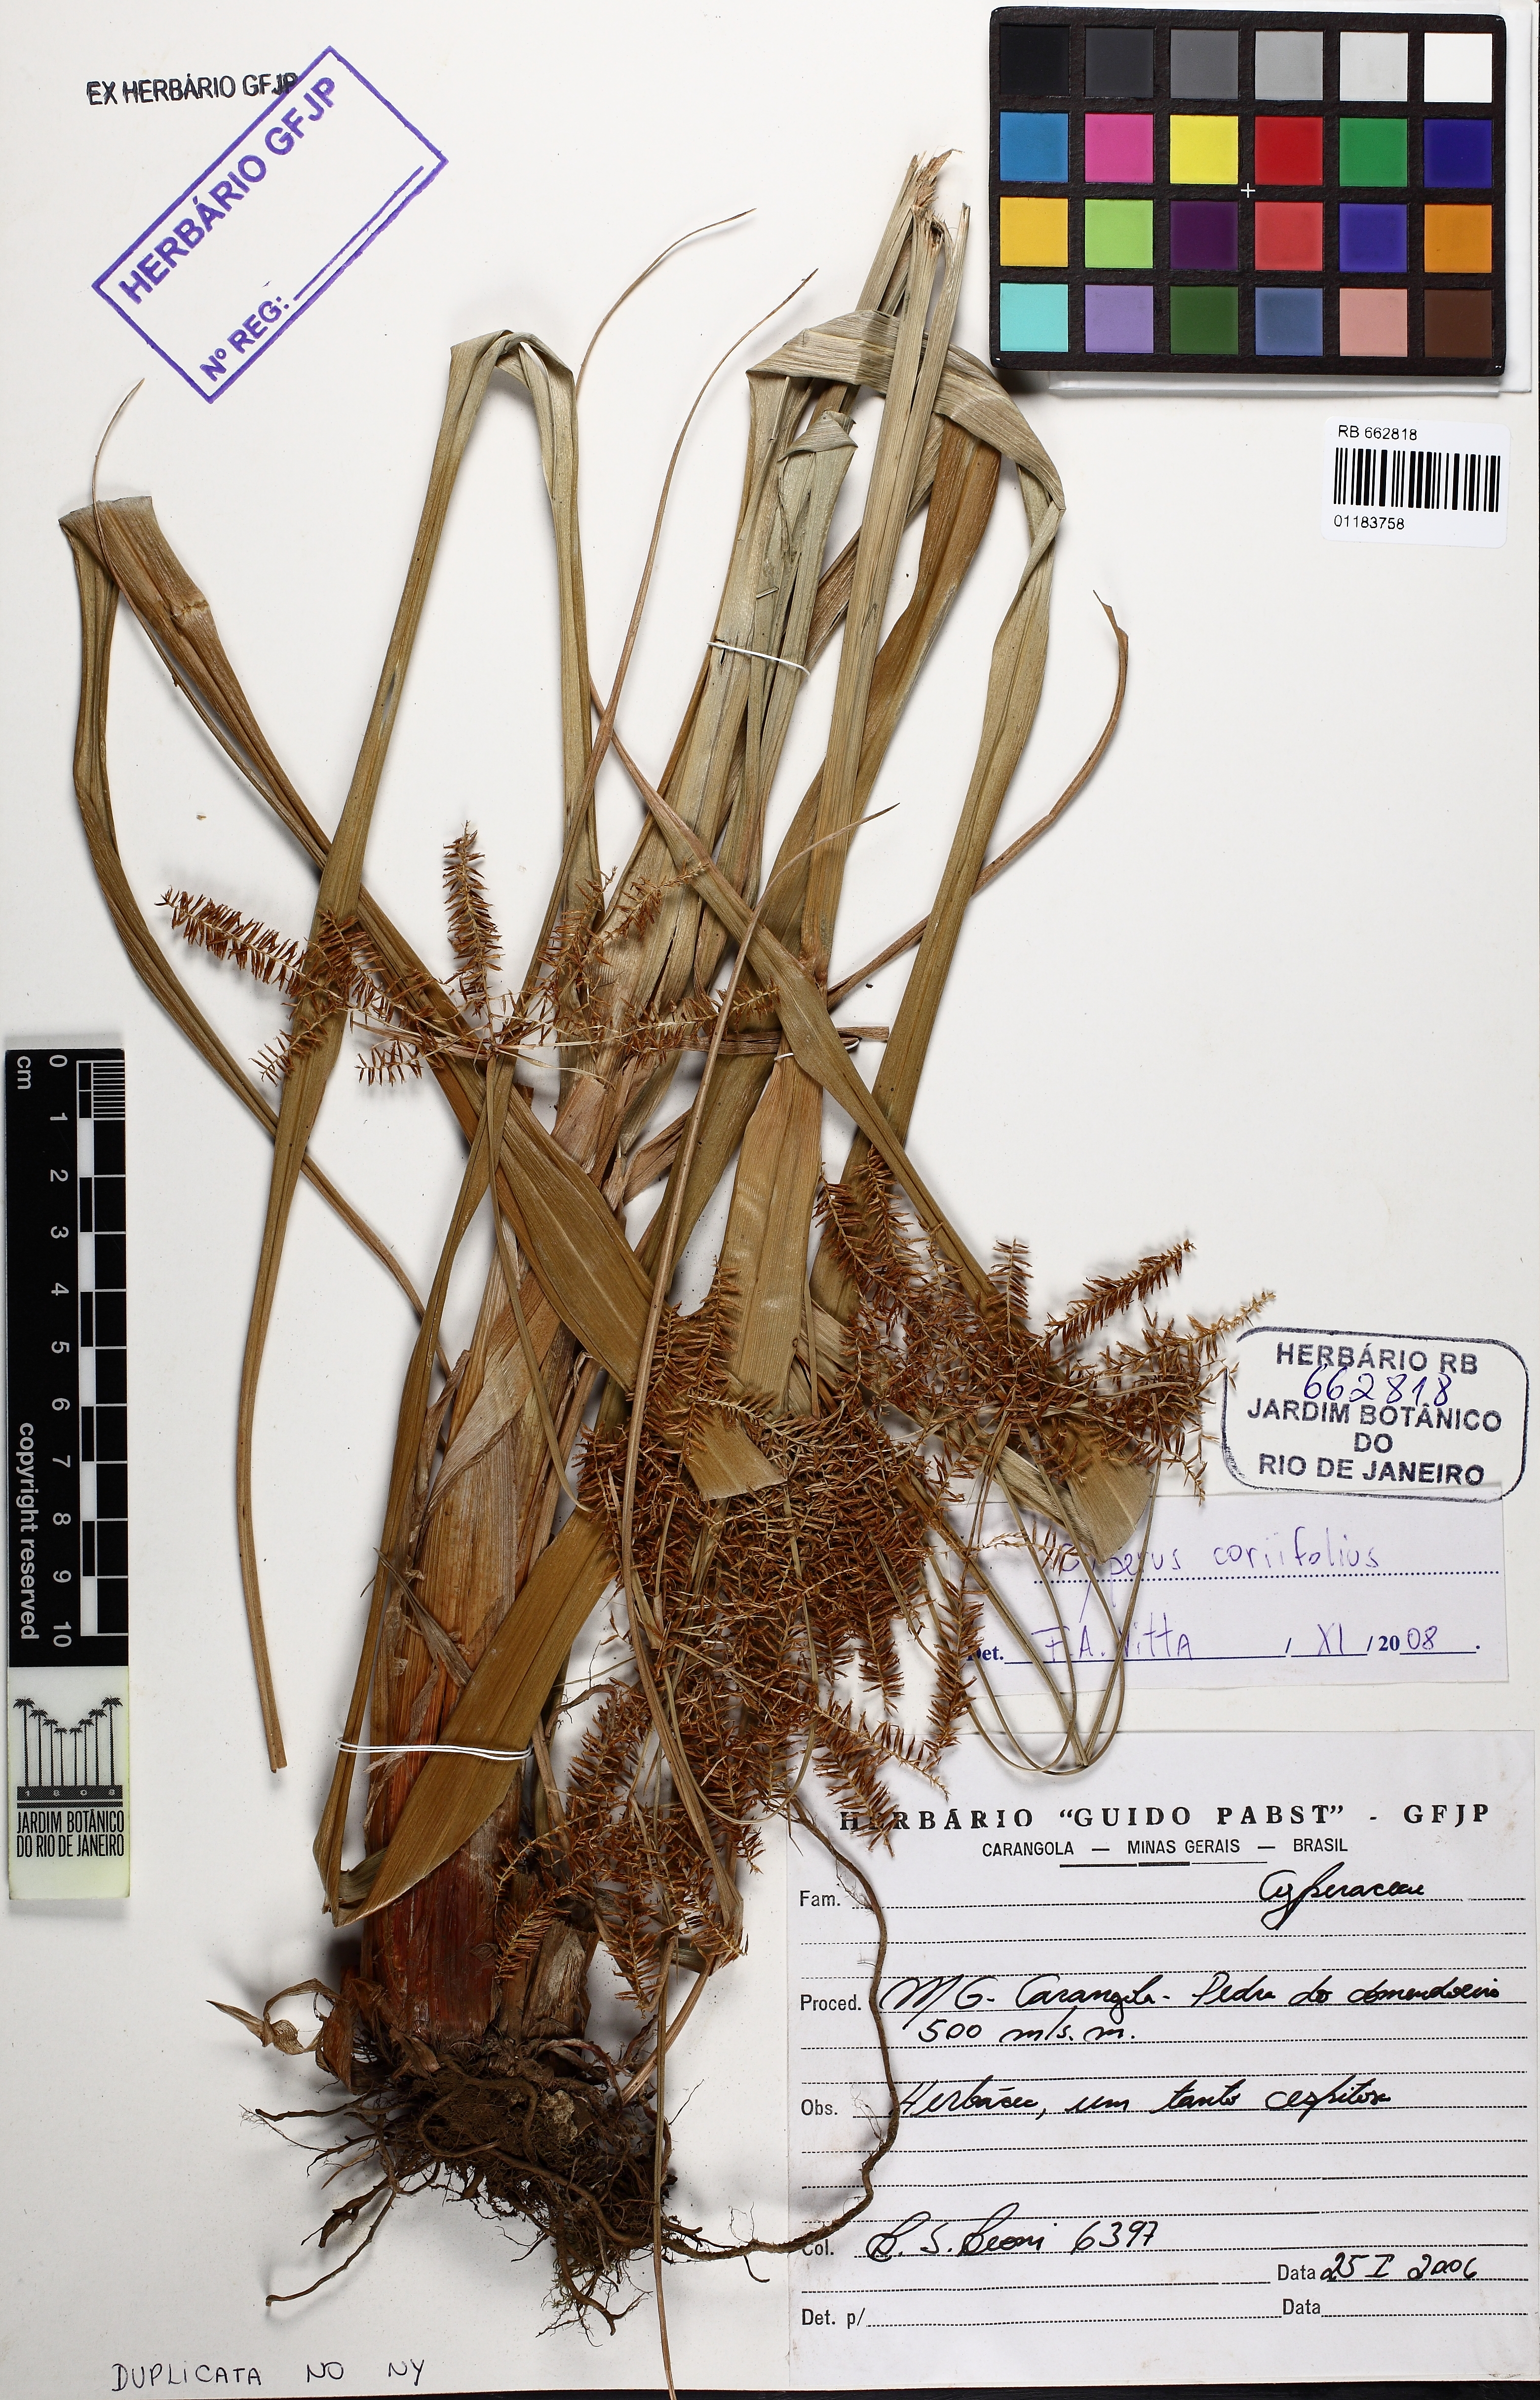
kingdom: Plantae
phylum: Tracheophyta
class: Liliopsida
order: Poales
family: Cyperaceae
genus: Cyperus
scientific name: Cyperus coriifolius
